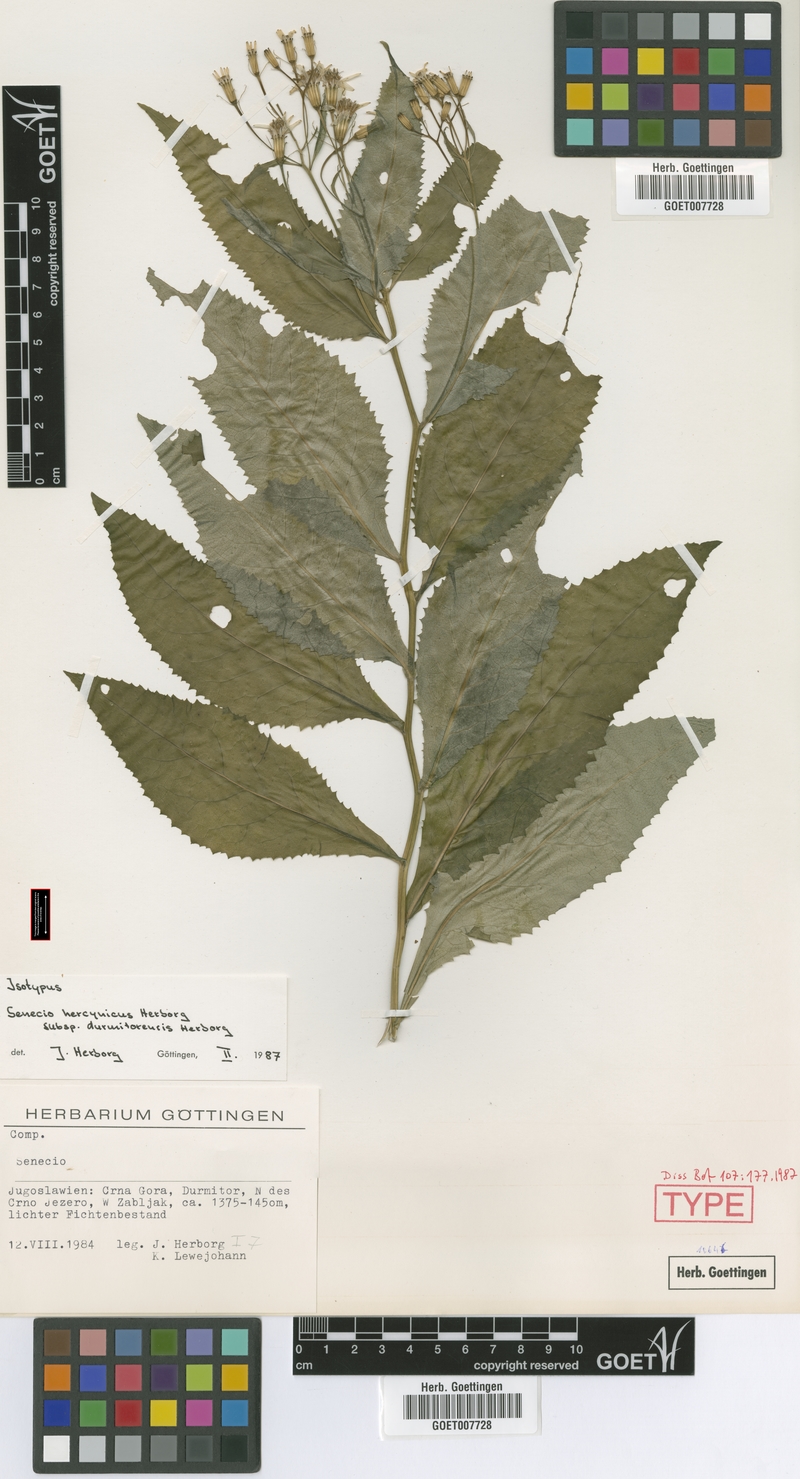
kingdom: Plantae
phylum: Tracheophyta
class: Magnoliopsida
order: Asterales
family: Asteraceae
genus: Senecio
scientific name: Senecio hercynicus
